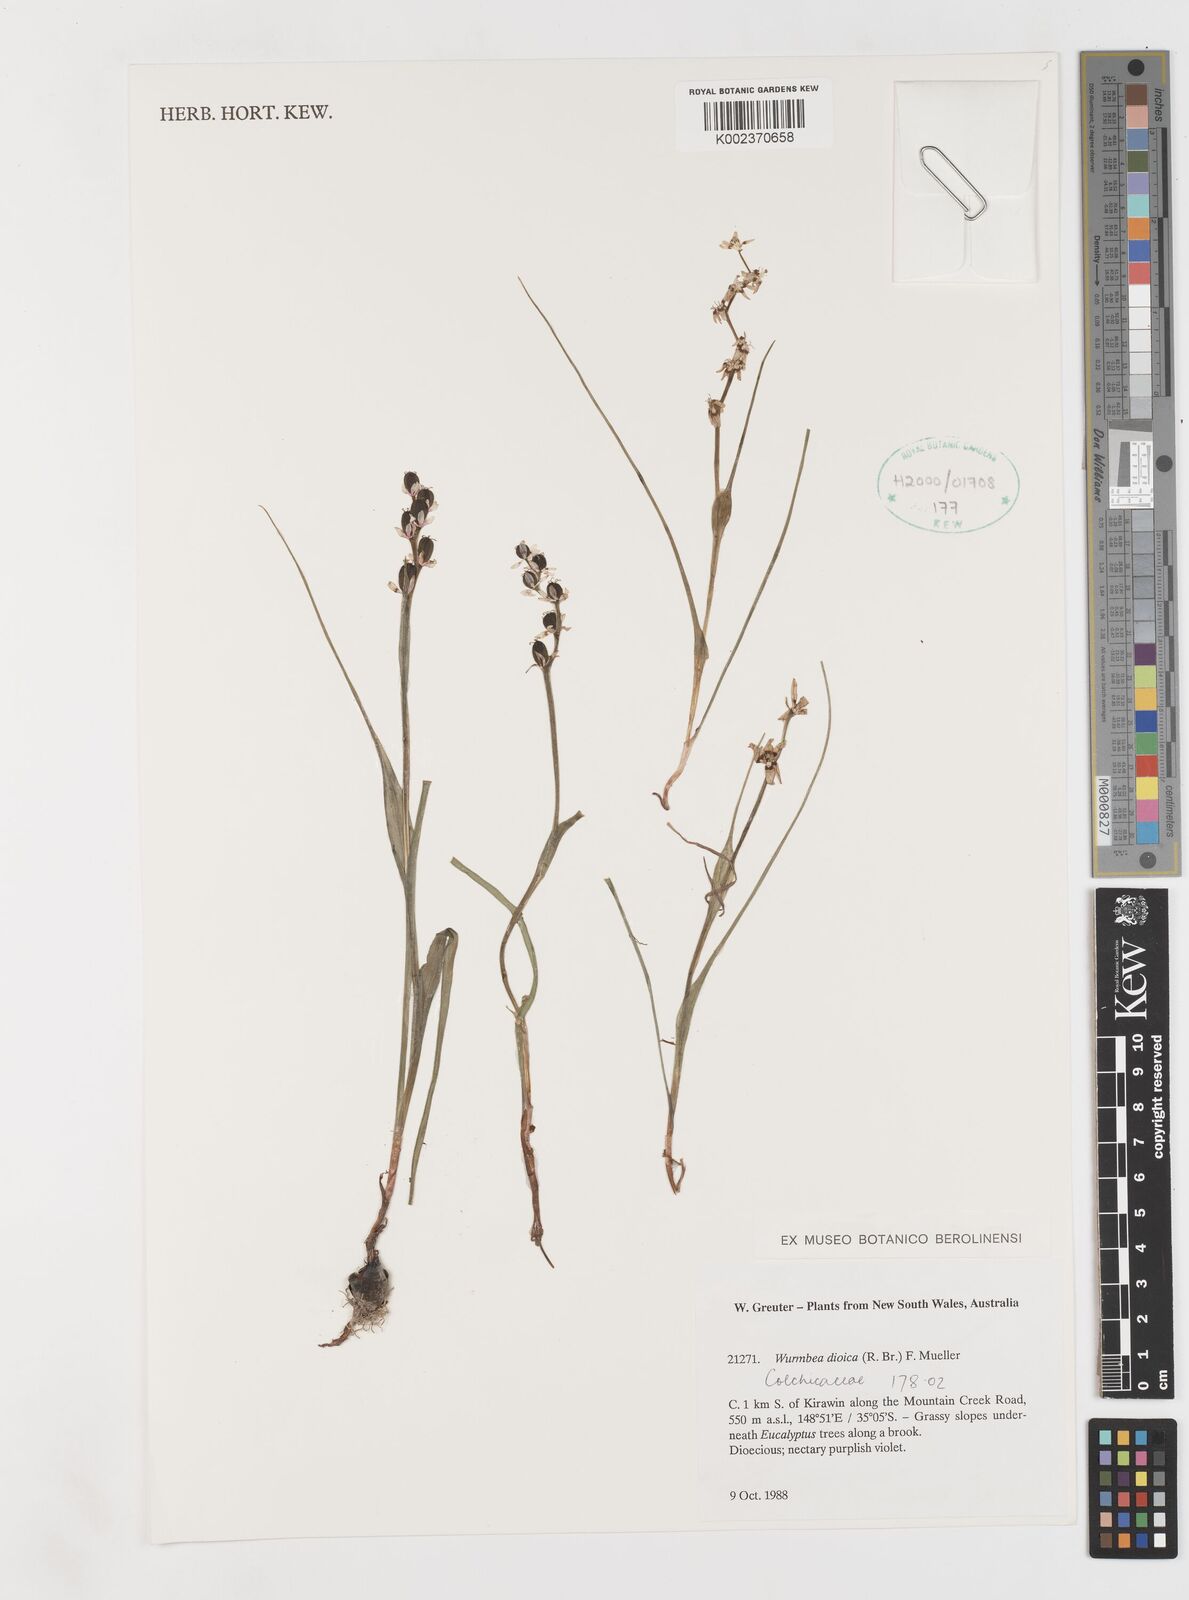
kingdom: Plantae
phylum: Tracheophyta
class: Liliopsida
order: Liliales
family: Colchicaceae
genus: Wurmbea
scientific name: Wurmbea dioica
